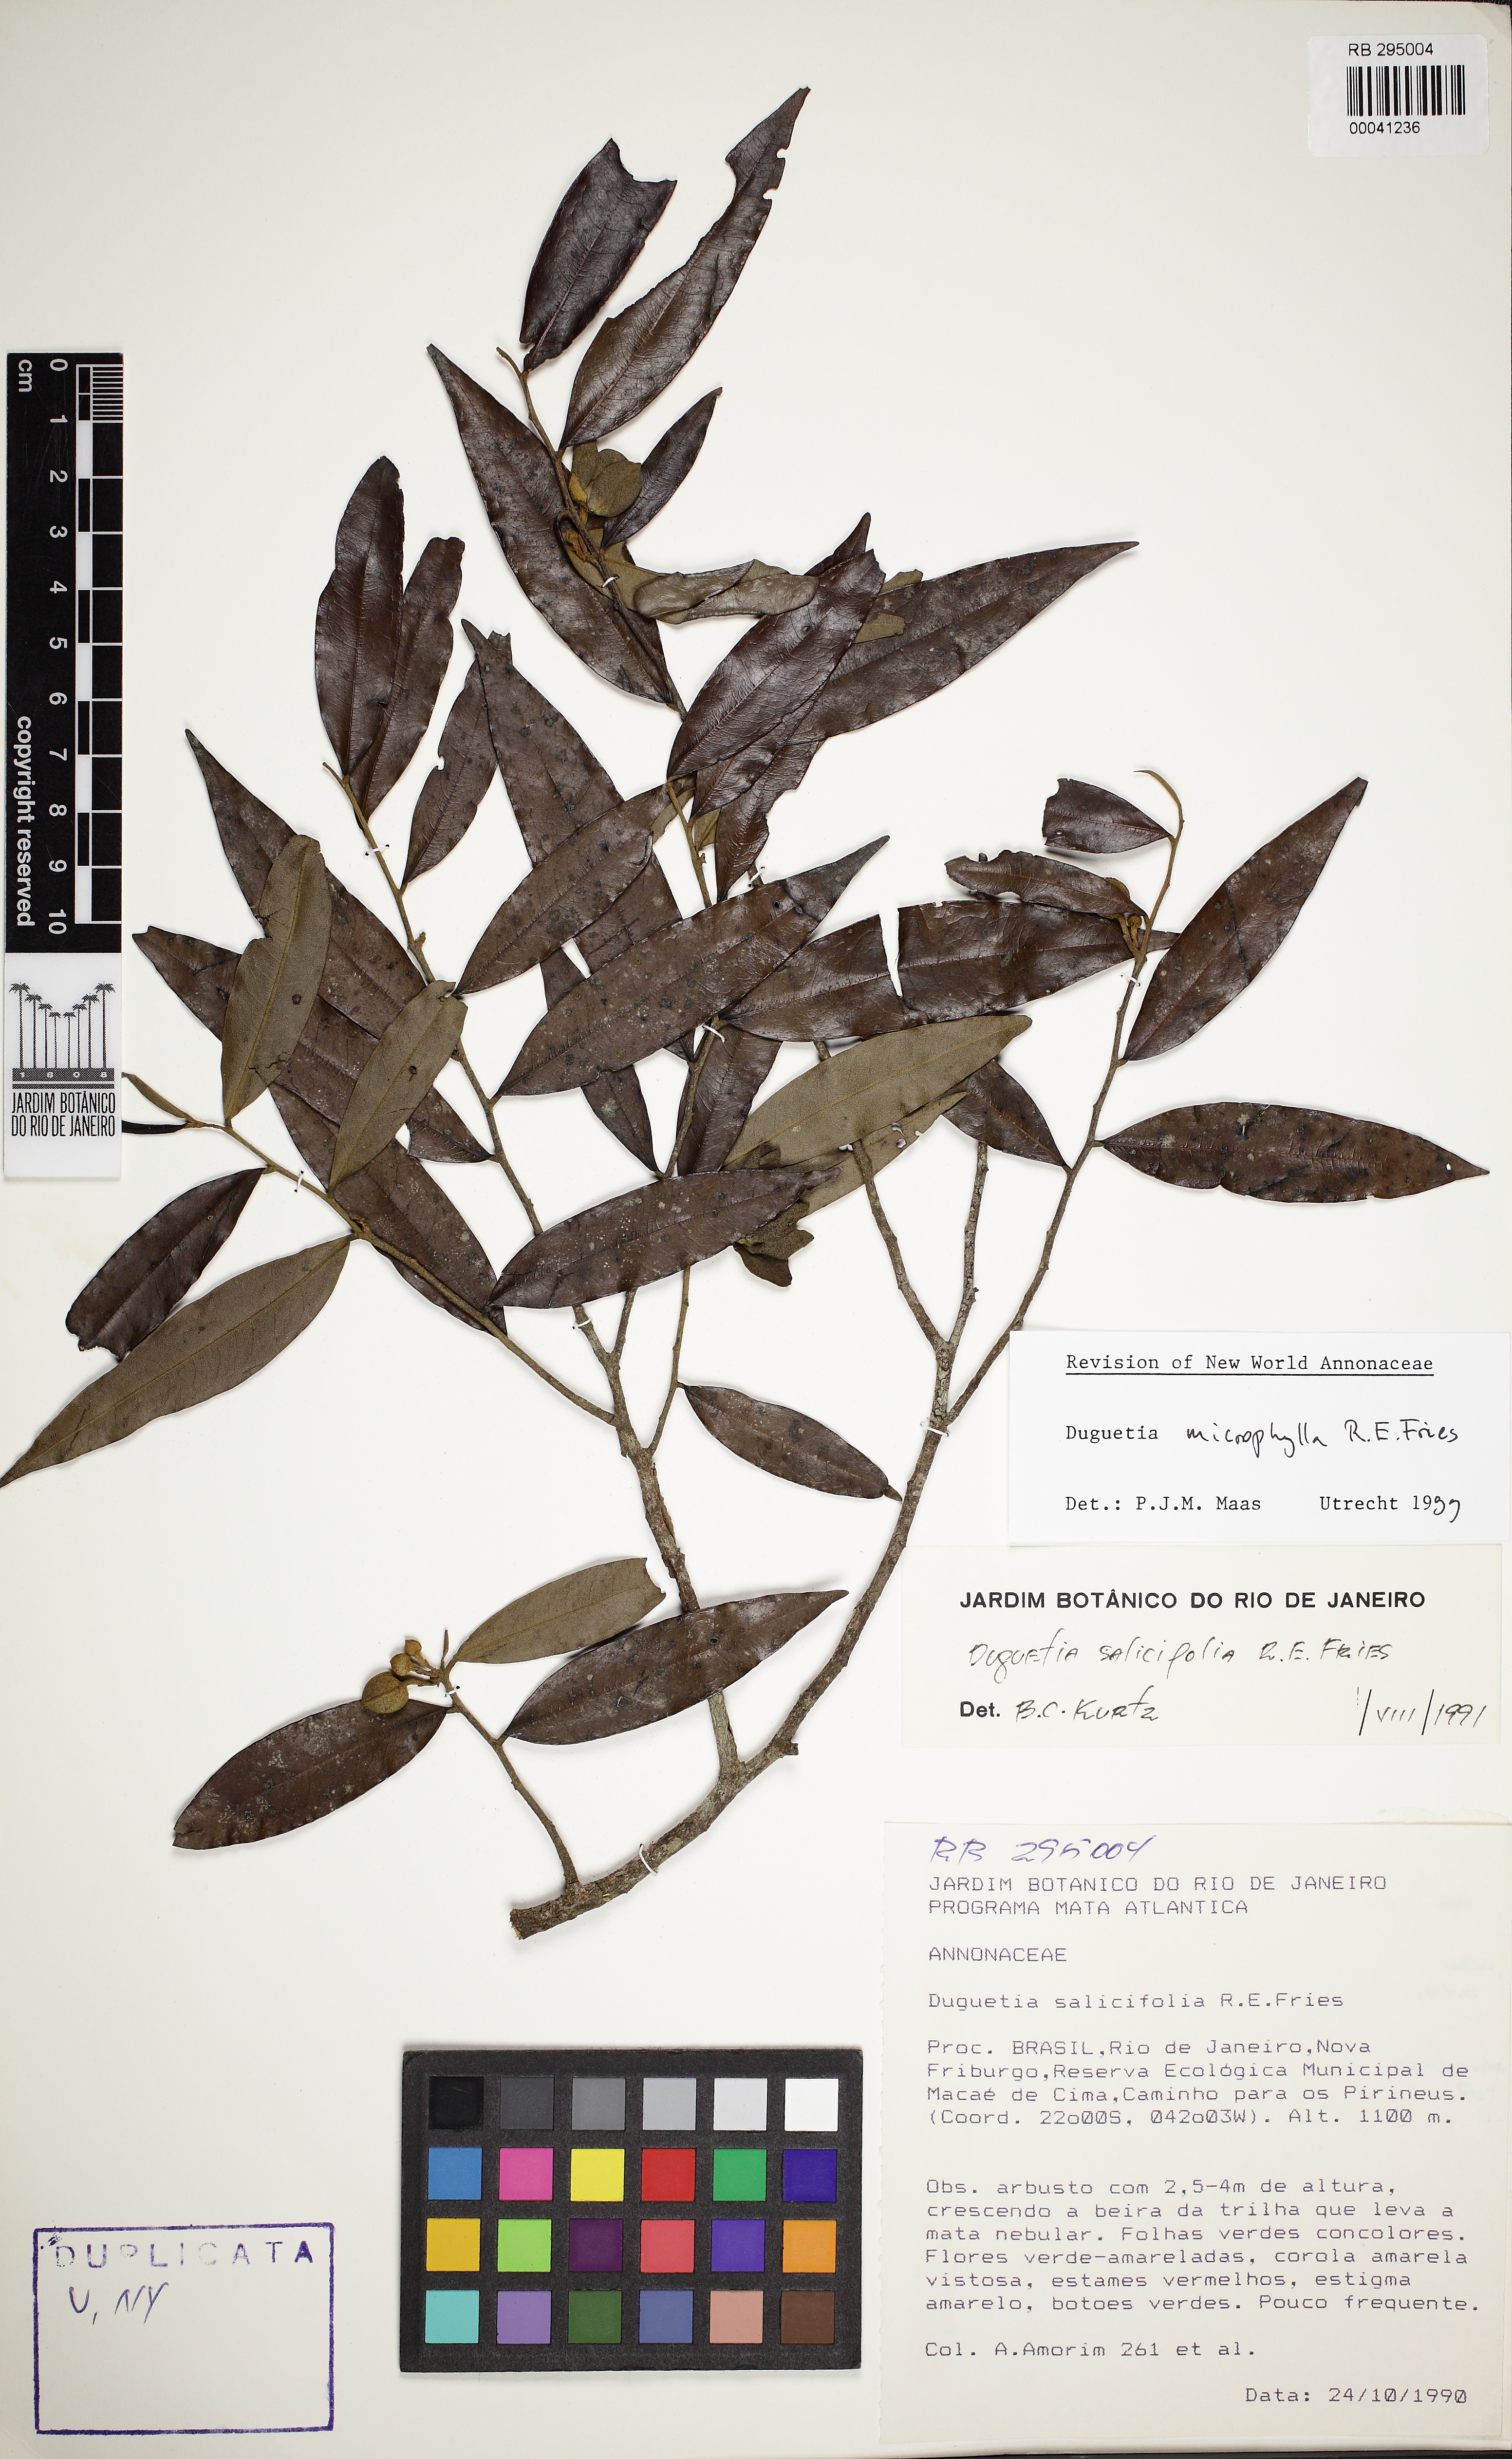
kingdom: Plantae
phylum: Tracheophyta
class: Magnoliopsida
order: Magnoliales
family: Annonaceae
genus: Duguetia
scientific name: Duguetia microphylla
